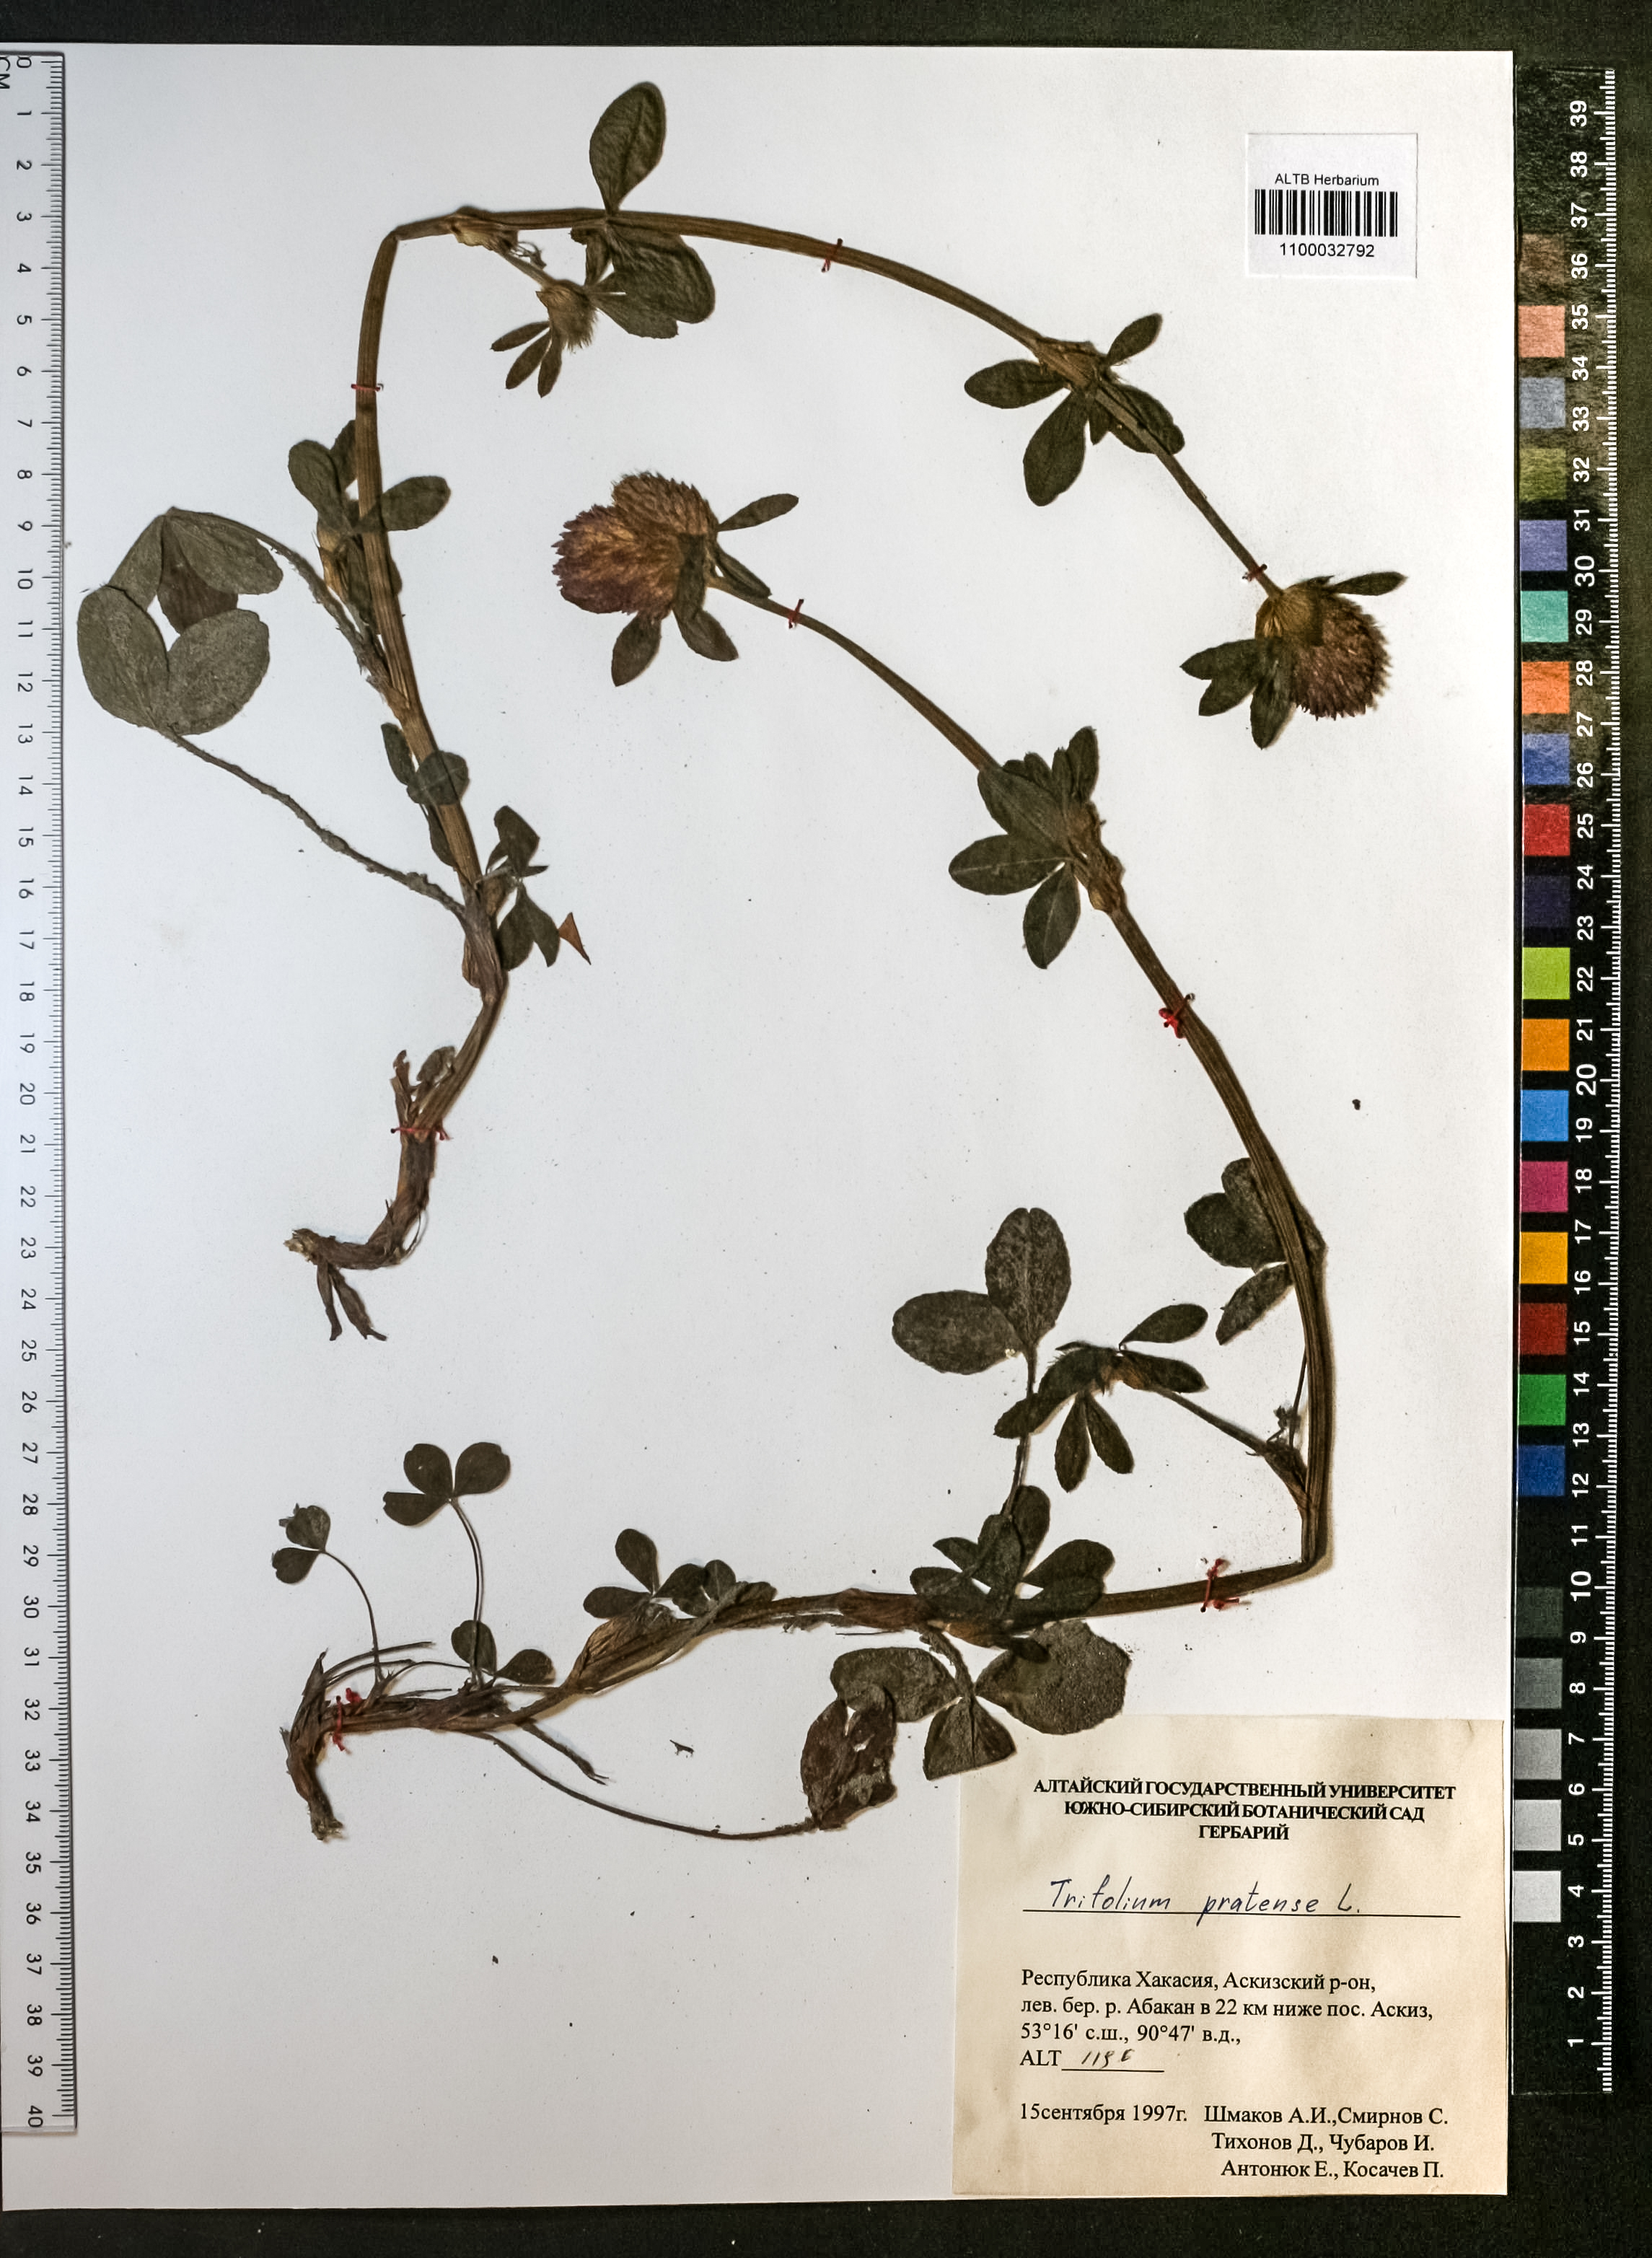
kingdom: Plantae
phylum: Tracheophyta
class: Magnoliopsida
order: Fabales
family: Fabaceae
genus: Trifolium
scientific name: Trifolium pratense
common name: Red clover
